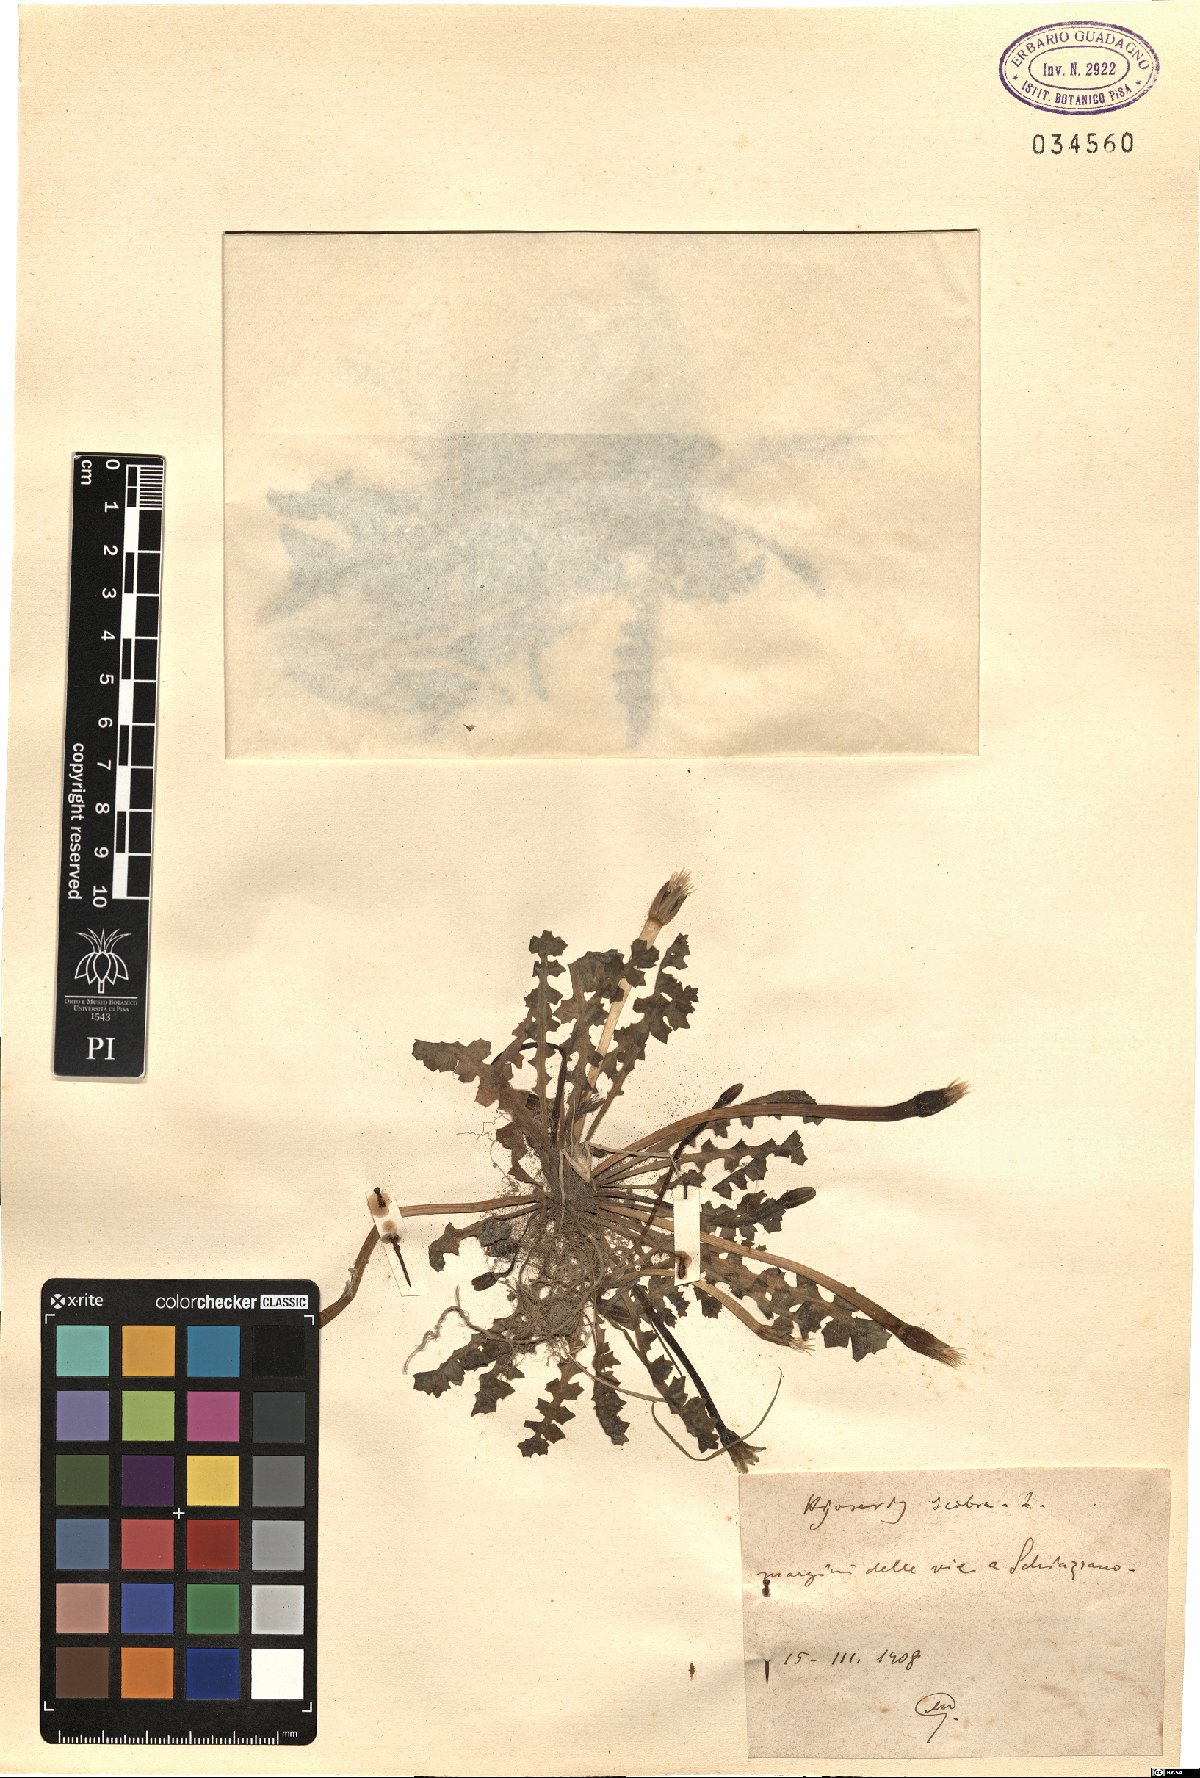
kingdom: Plantae
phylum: Tracheophyta
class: Magnoliopsida
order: Asterales
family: Asteraceae
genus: Hyoseris
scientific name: Hyoseris scabra
